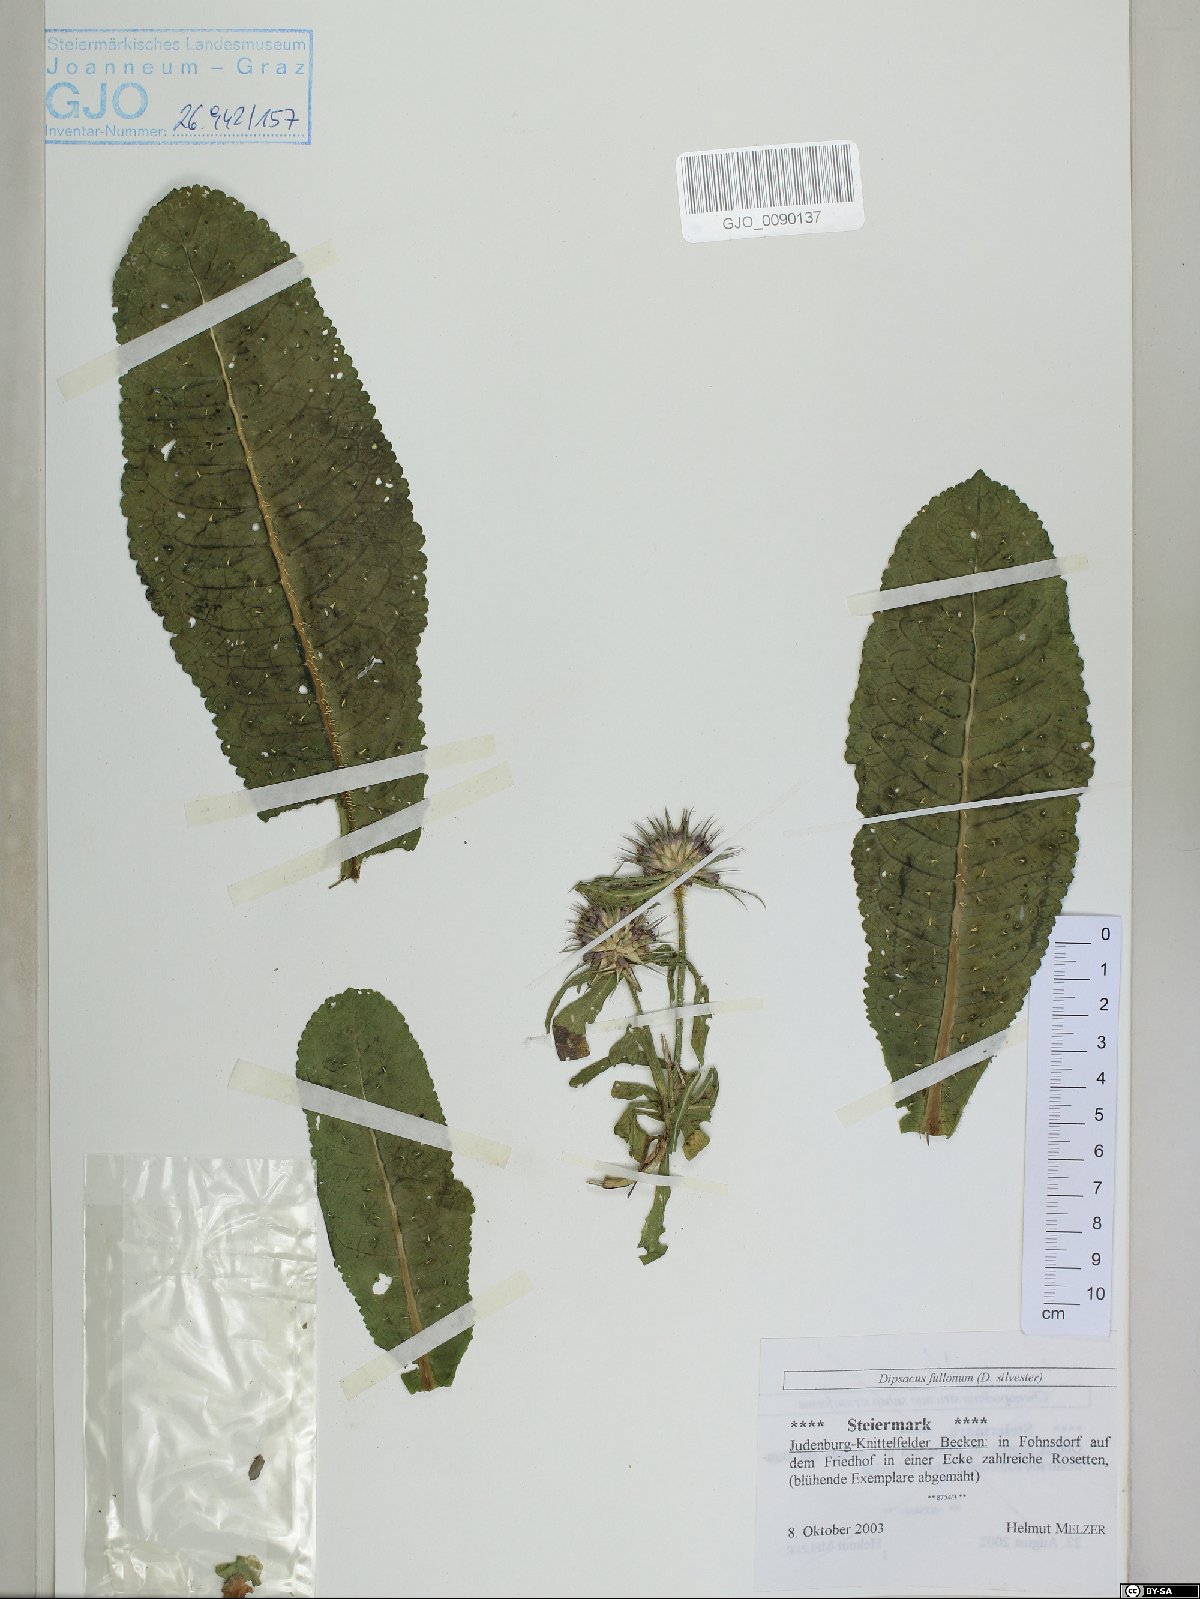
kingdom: Plantae
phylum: Tracheophyta
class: Magnoliopsida
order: Dipsacales
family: Caprifoliaceae
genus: Dipsacus
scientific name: Dipsacus fullonum
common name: Teasel
